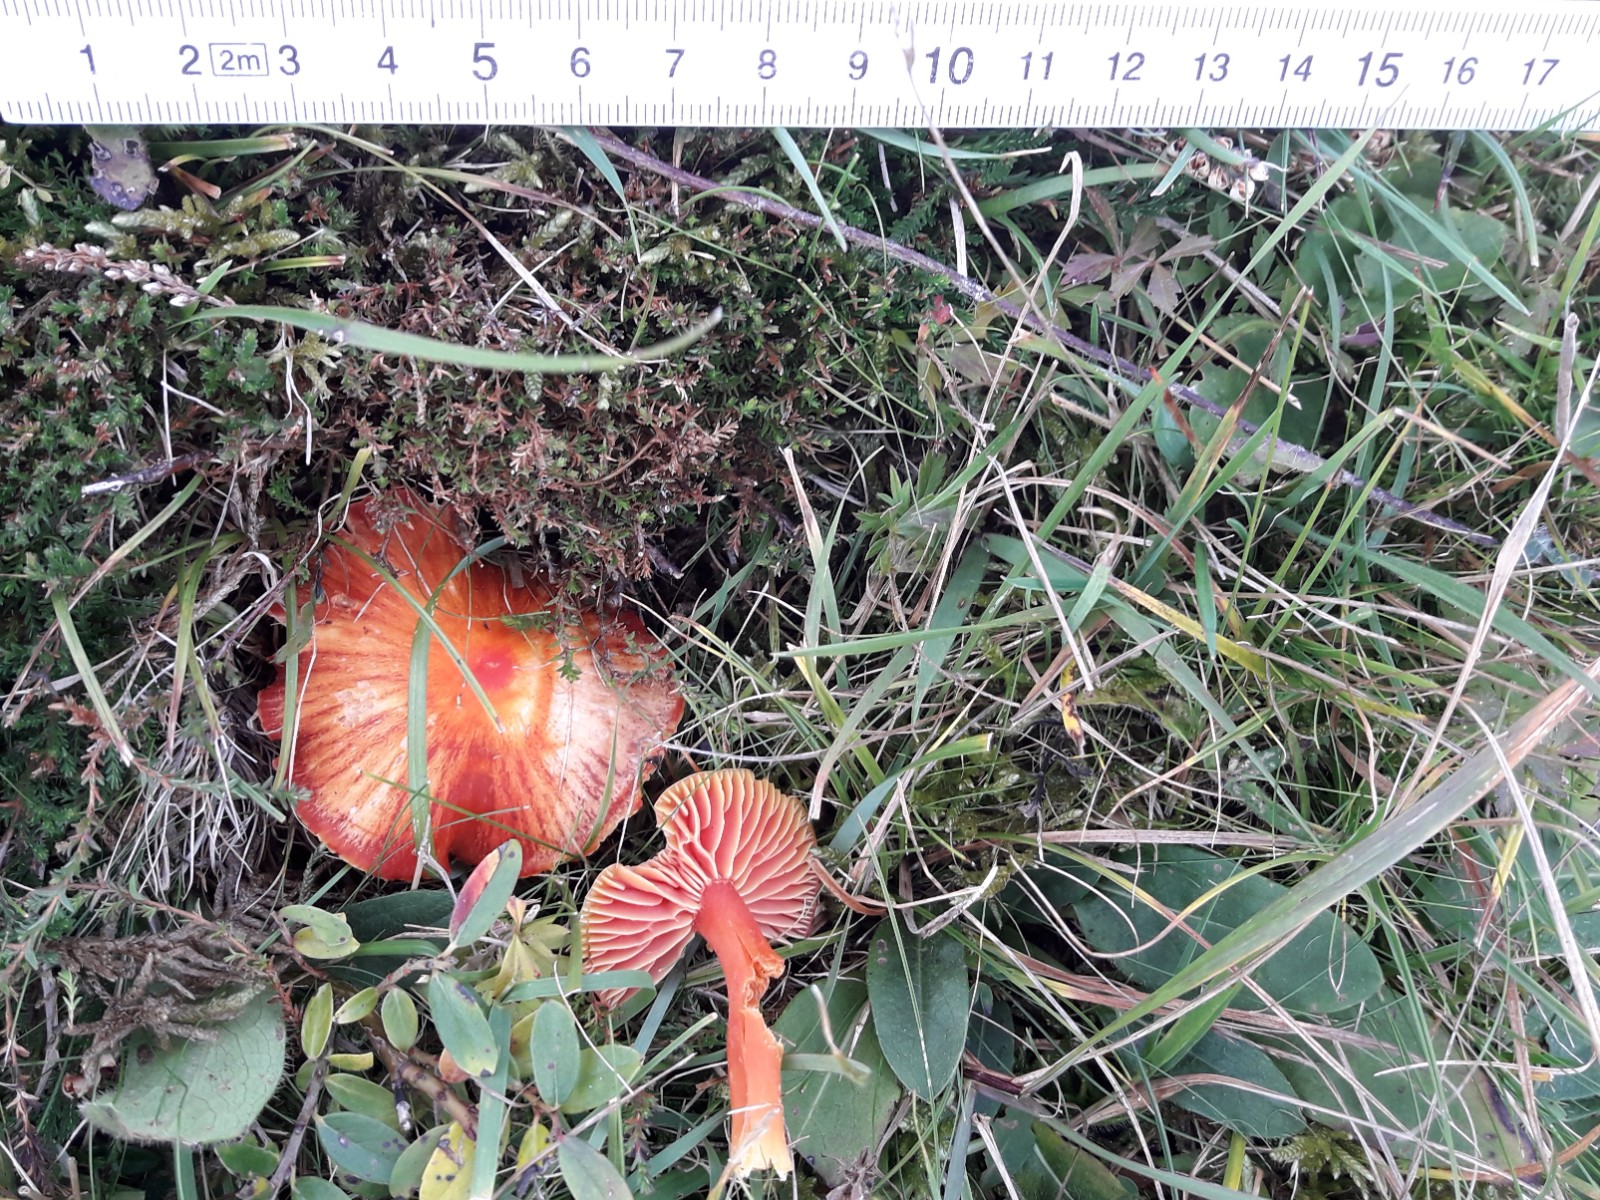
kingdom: Fungi
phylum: Basidiomycota
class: Agaricomycetes
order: Agaricales
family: Hygrophoraceae
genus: Hygrocybe
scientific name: Hygrocybe coccinea
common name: cinnober-vokshat
